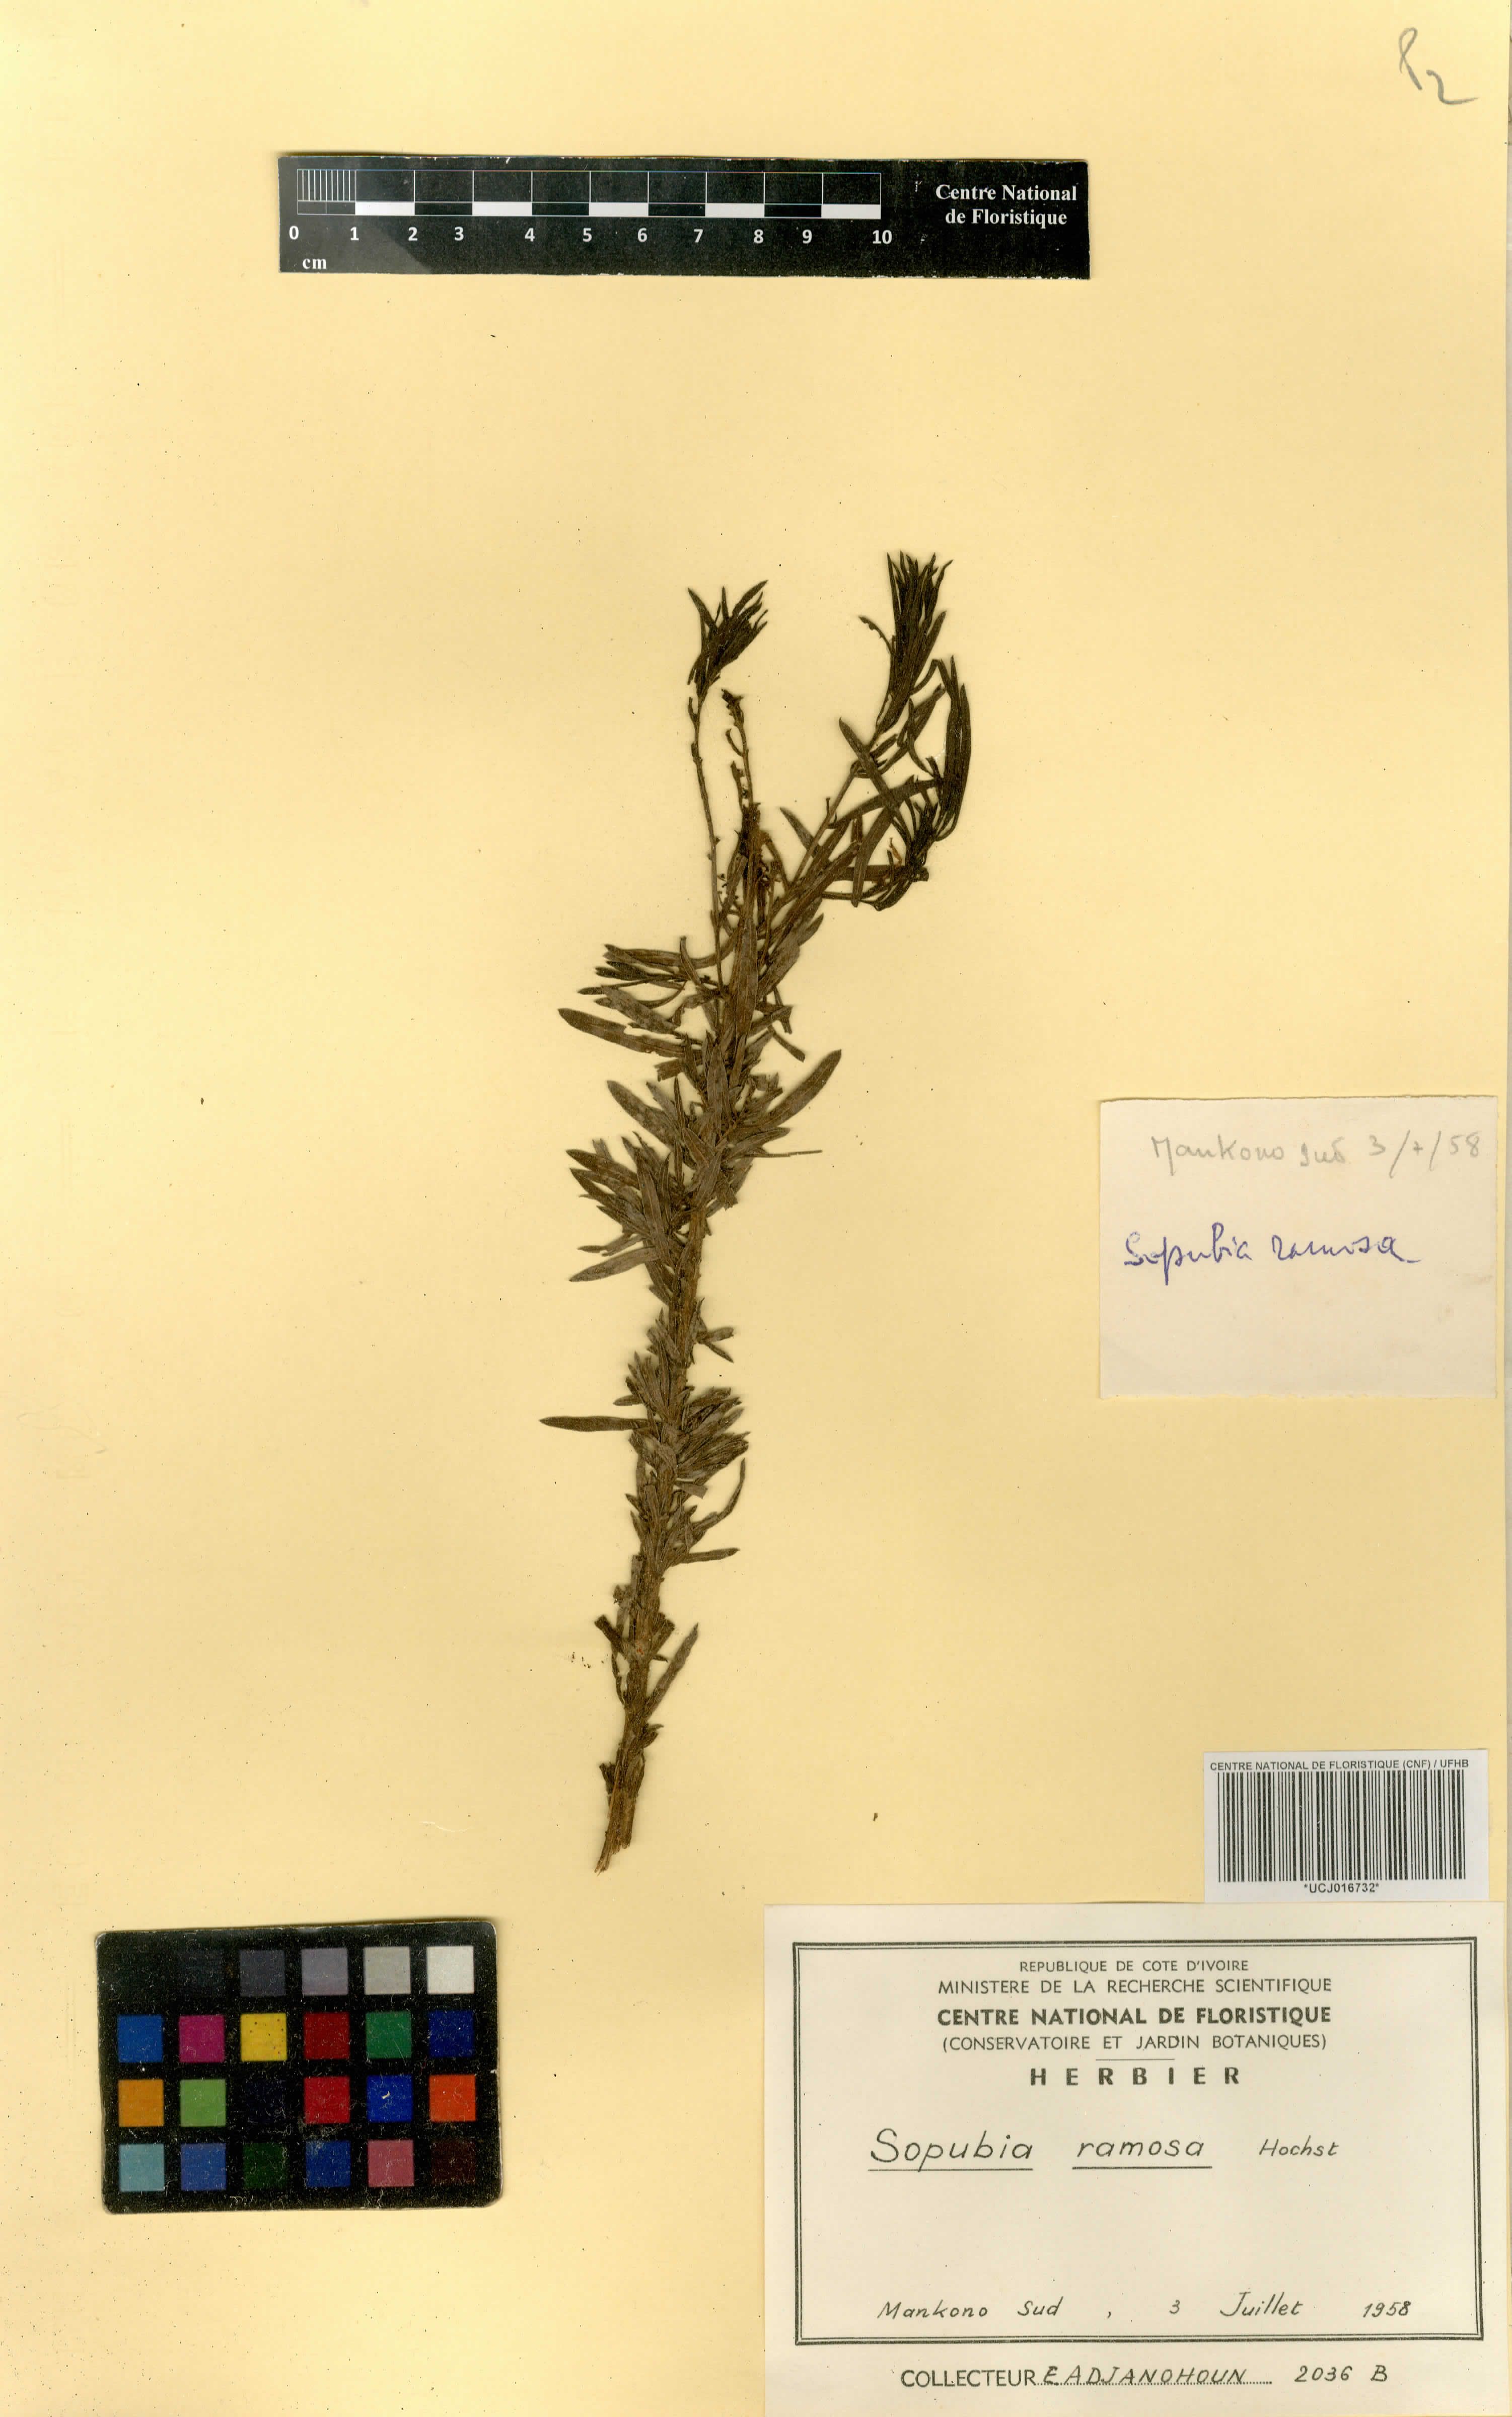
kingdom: Plantae
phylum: Tracheophyta
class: Magnoliopsida
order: Lamiales
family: Orobanchaceae
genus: Sopubia
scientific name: Sopubia ramosa
